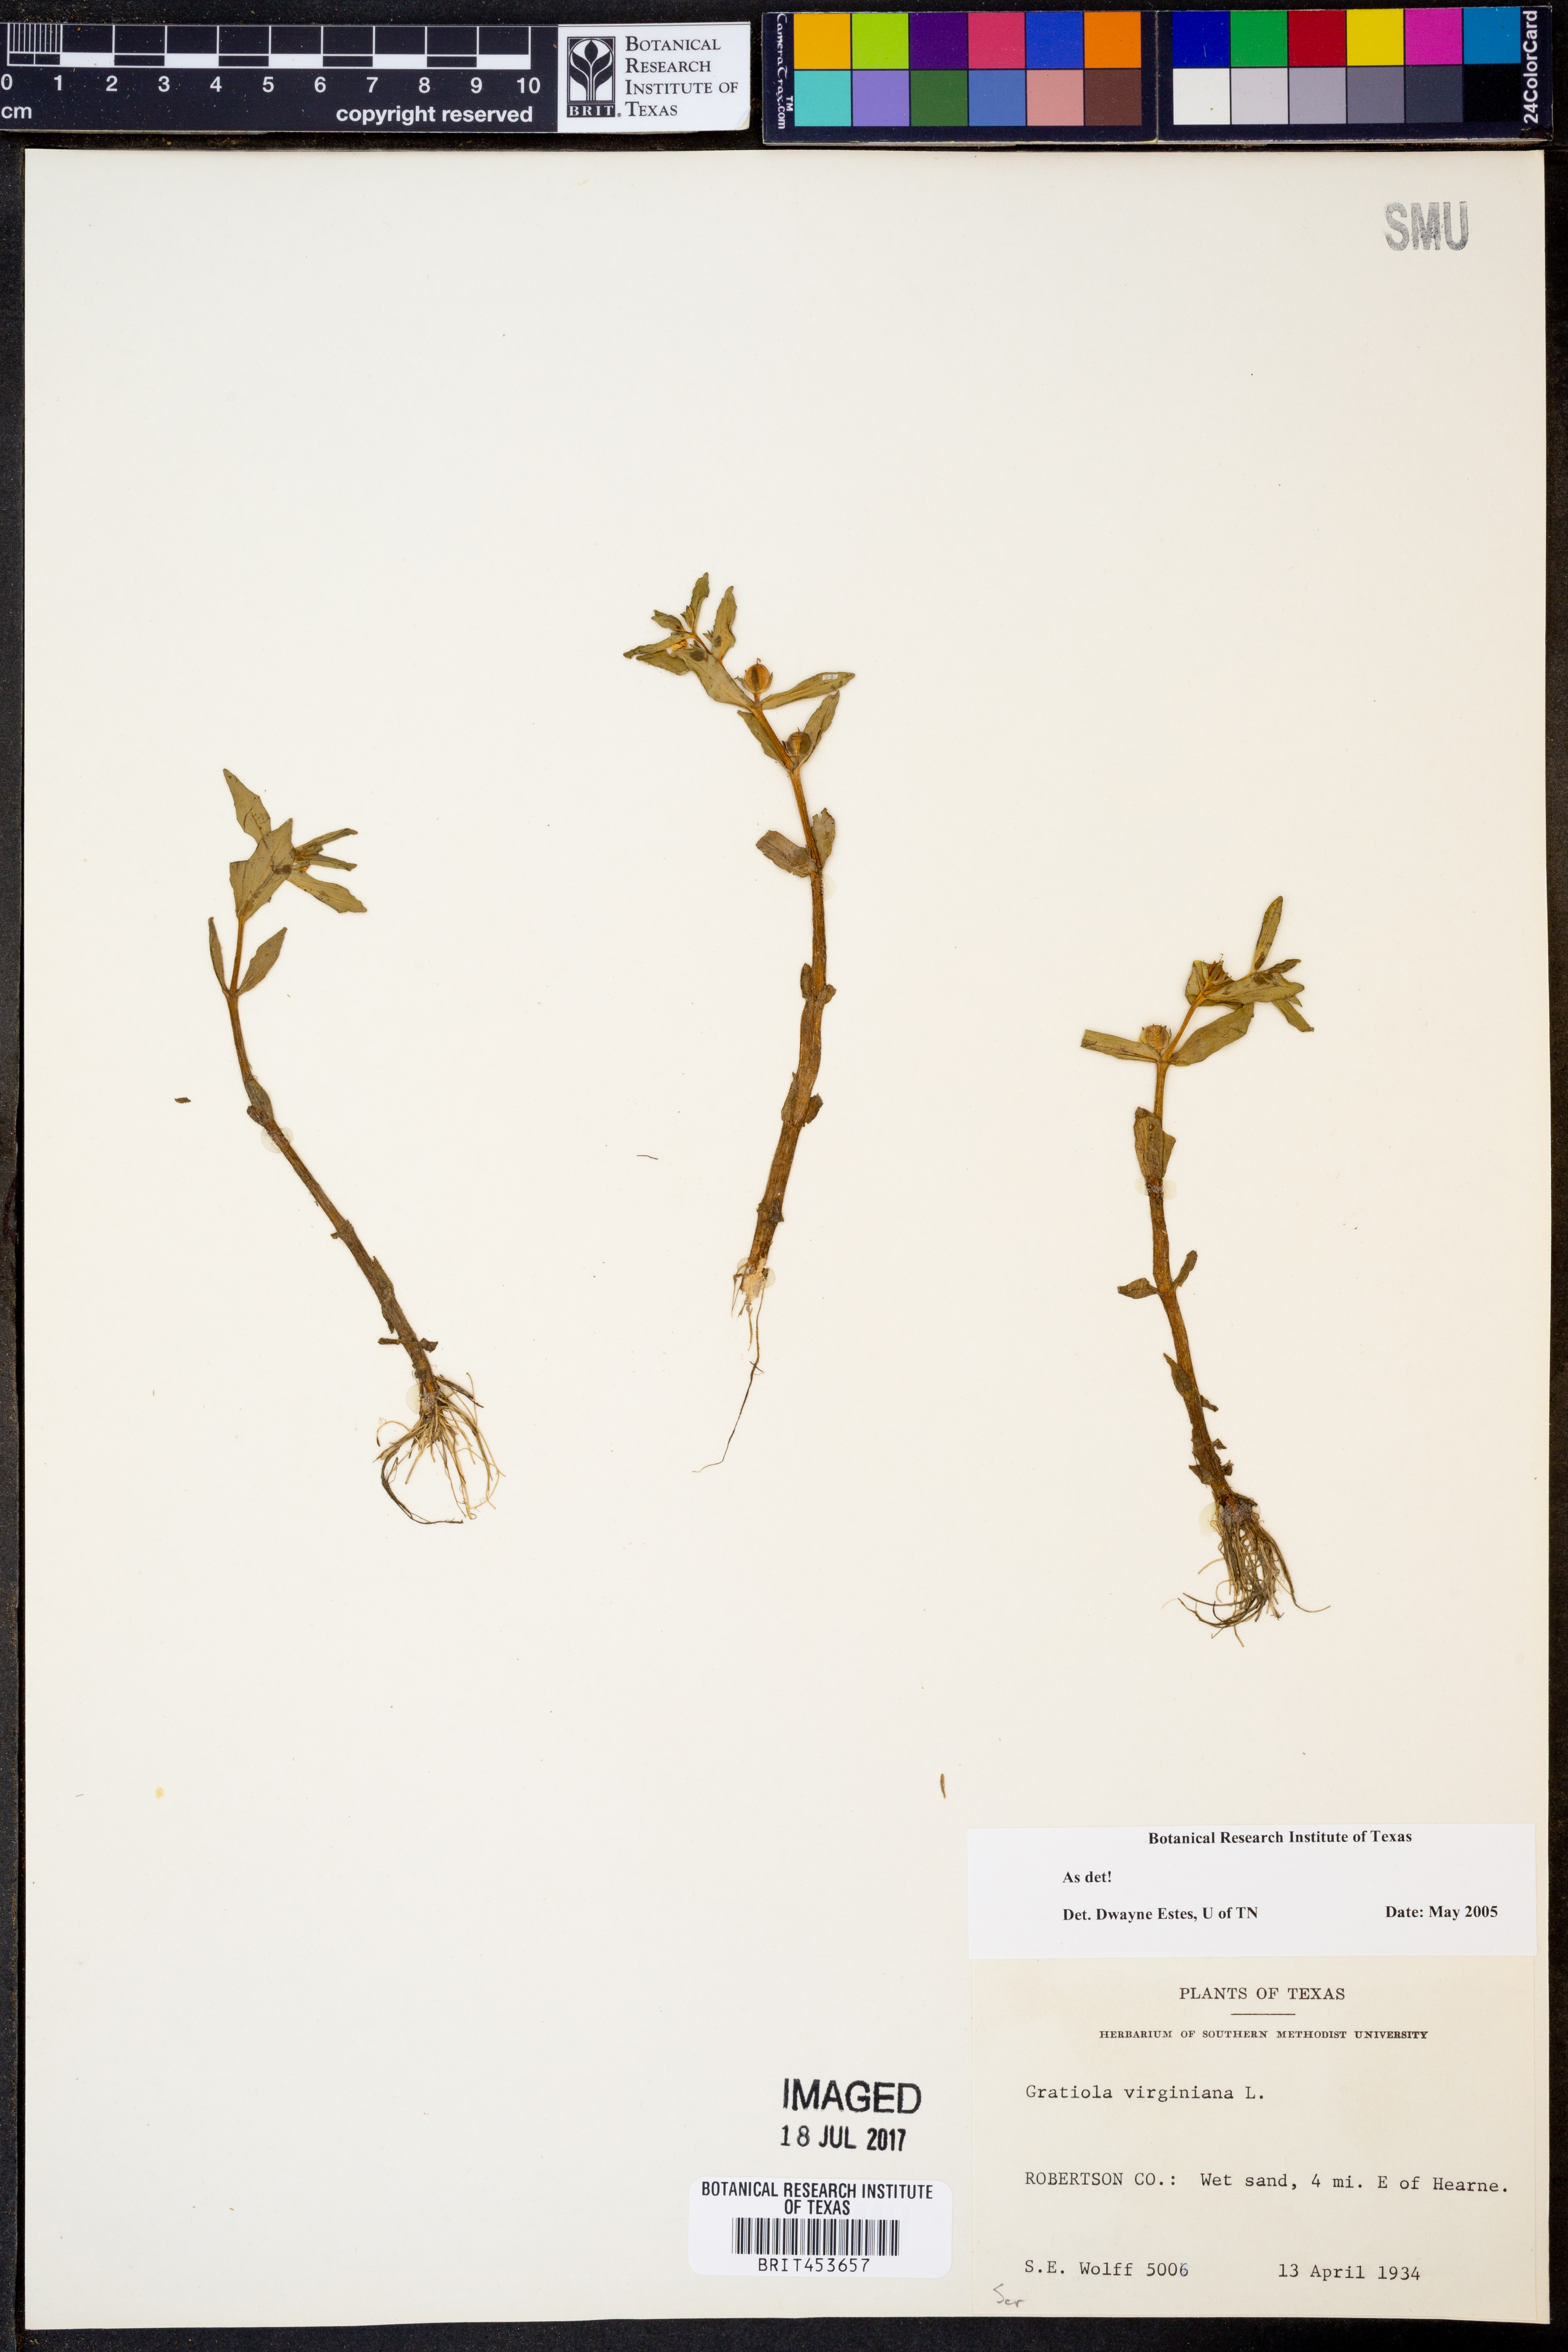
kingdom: Plantae
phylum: Tracheophyta
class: Magnoliopsida
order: Lamiales
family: Plantaginaceae
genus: Gratiola
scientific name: Gratiola virginiana
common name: Roundfruit hedgehyssop
